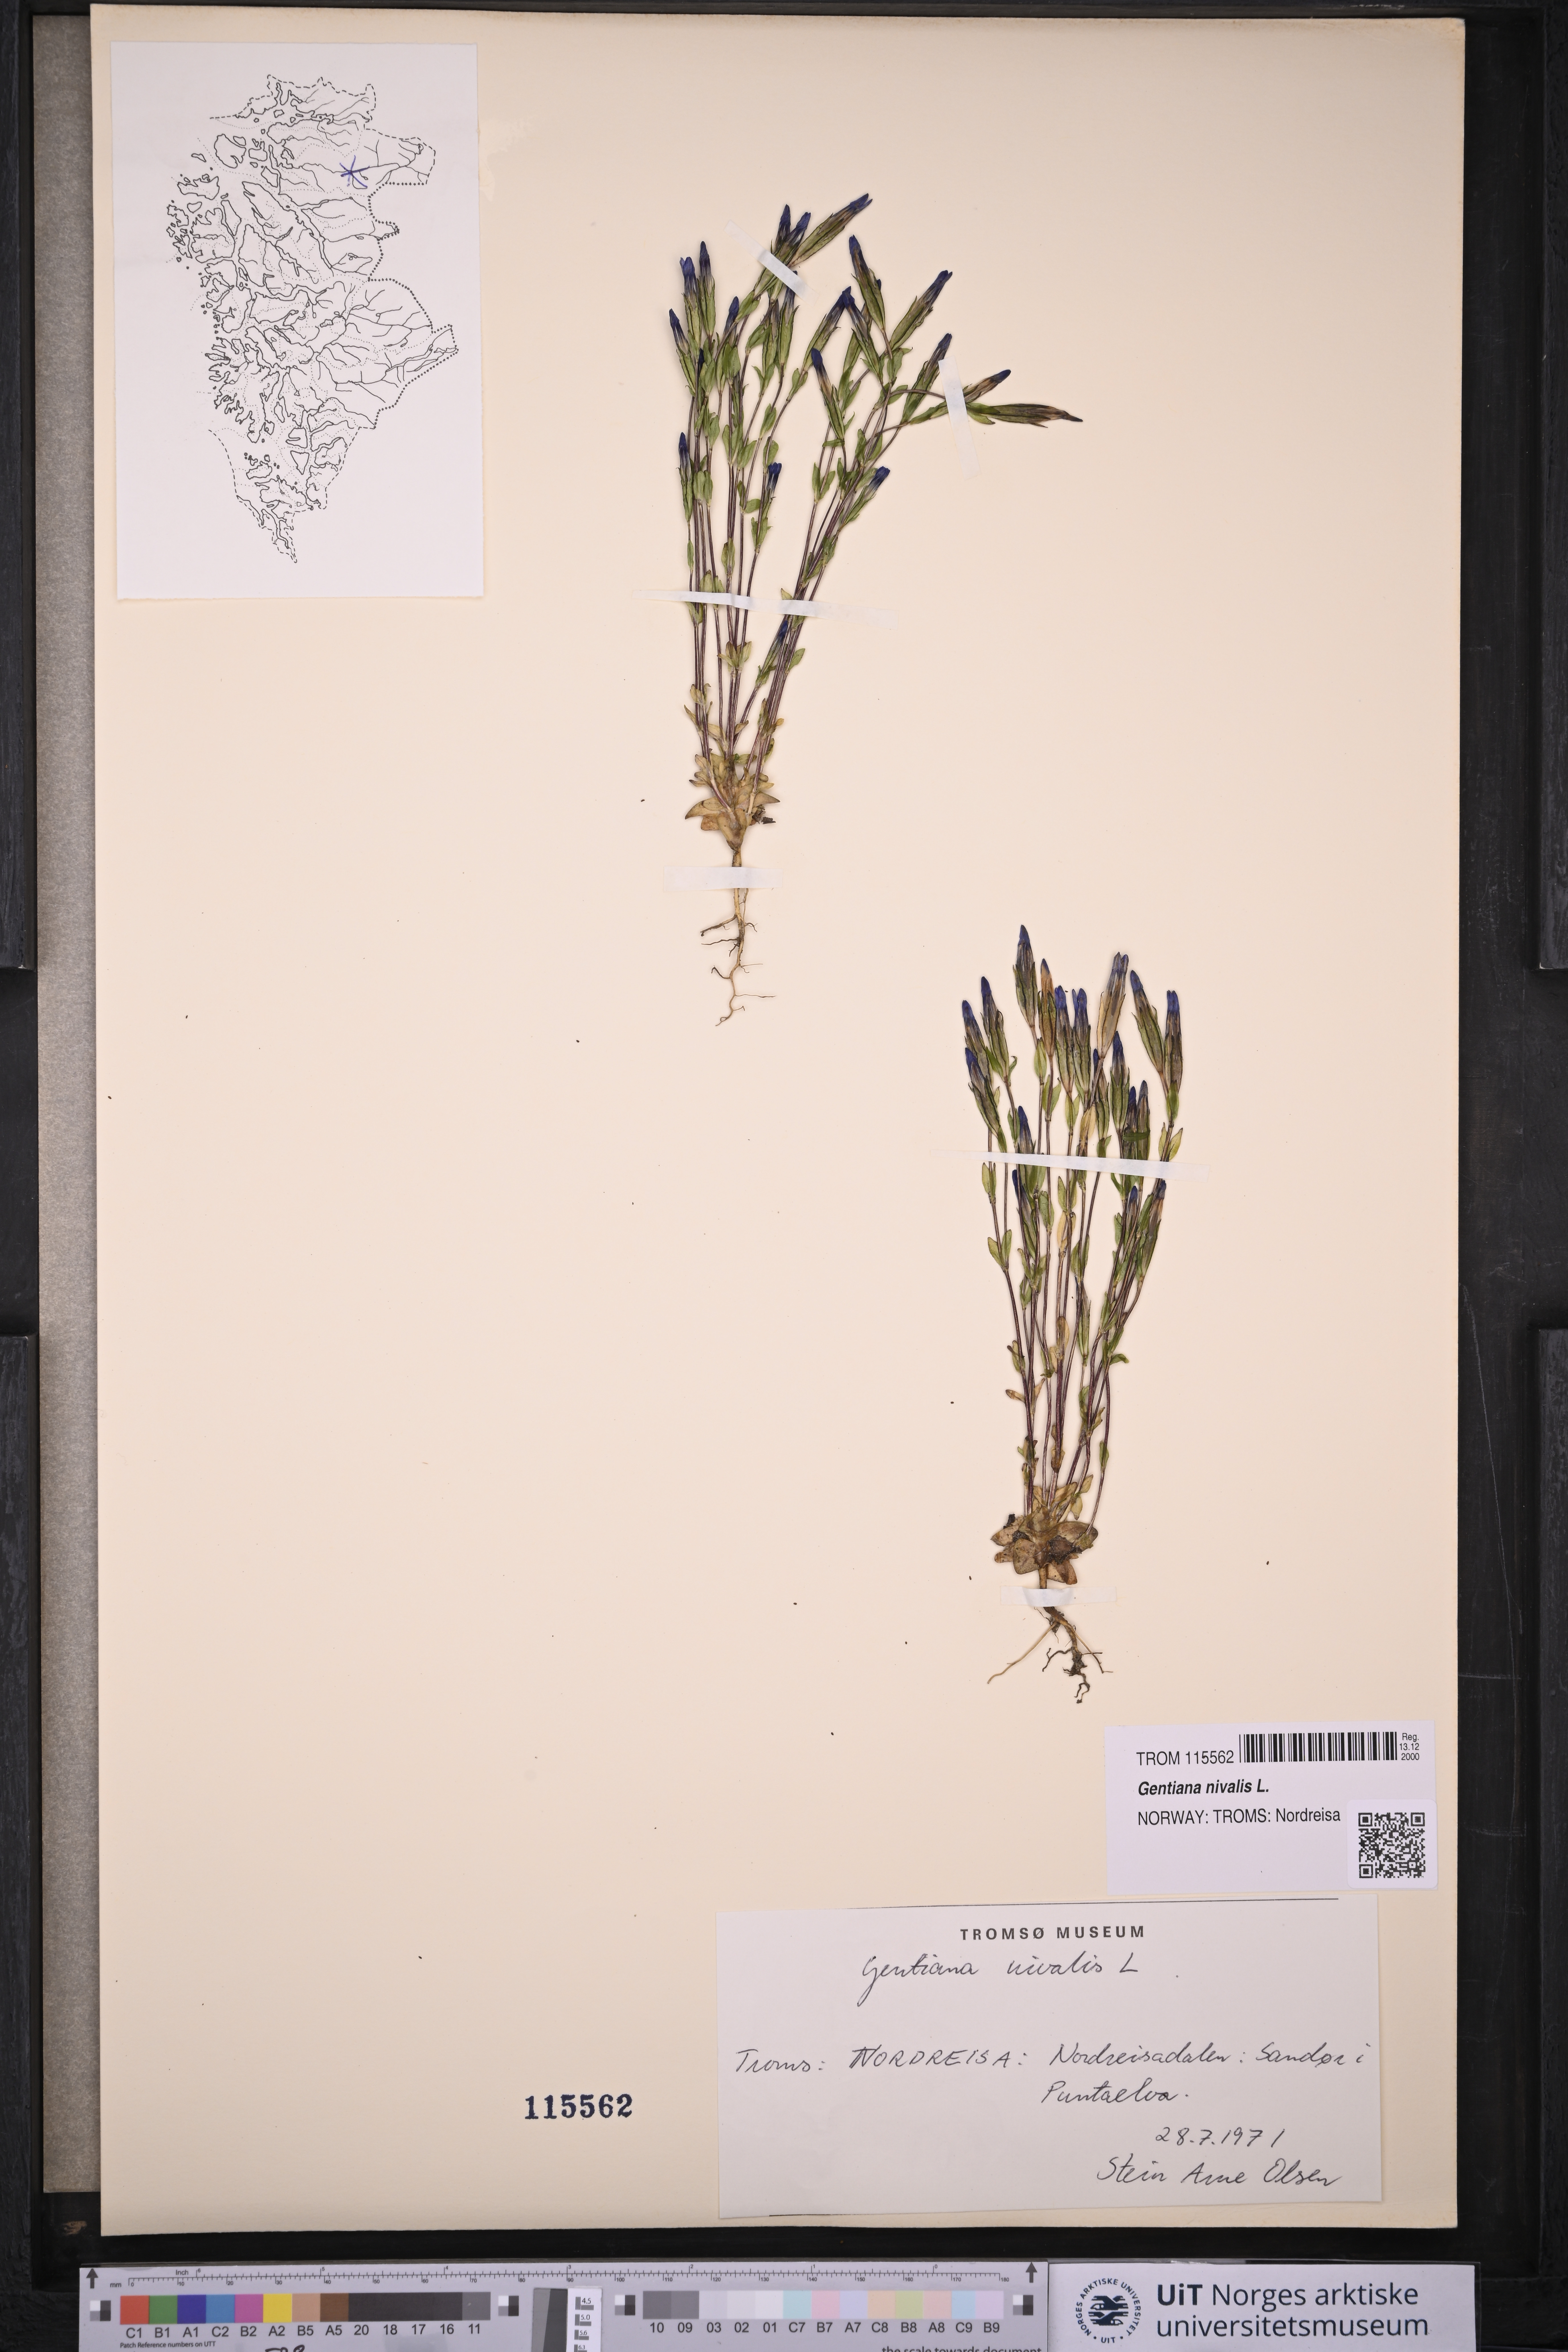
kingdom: Plantae
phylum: Tracheophyta
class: Magnoliopsida
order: Gentianales
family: Gentianaceae
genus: Gentiana
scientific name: Gentiana nivalis
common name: Alpine gentian
